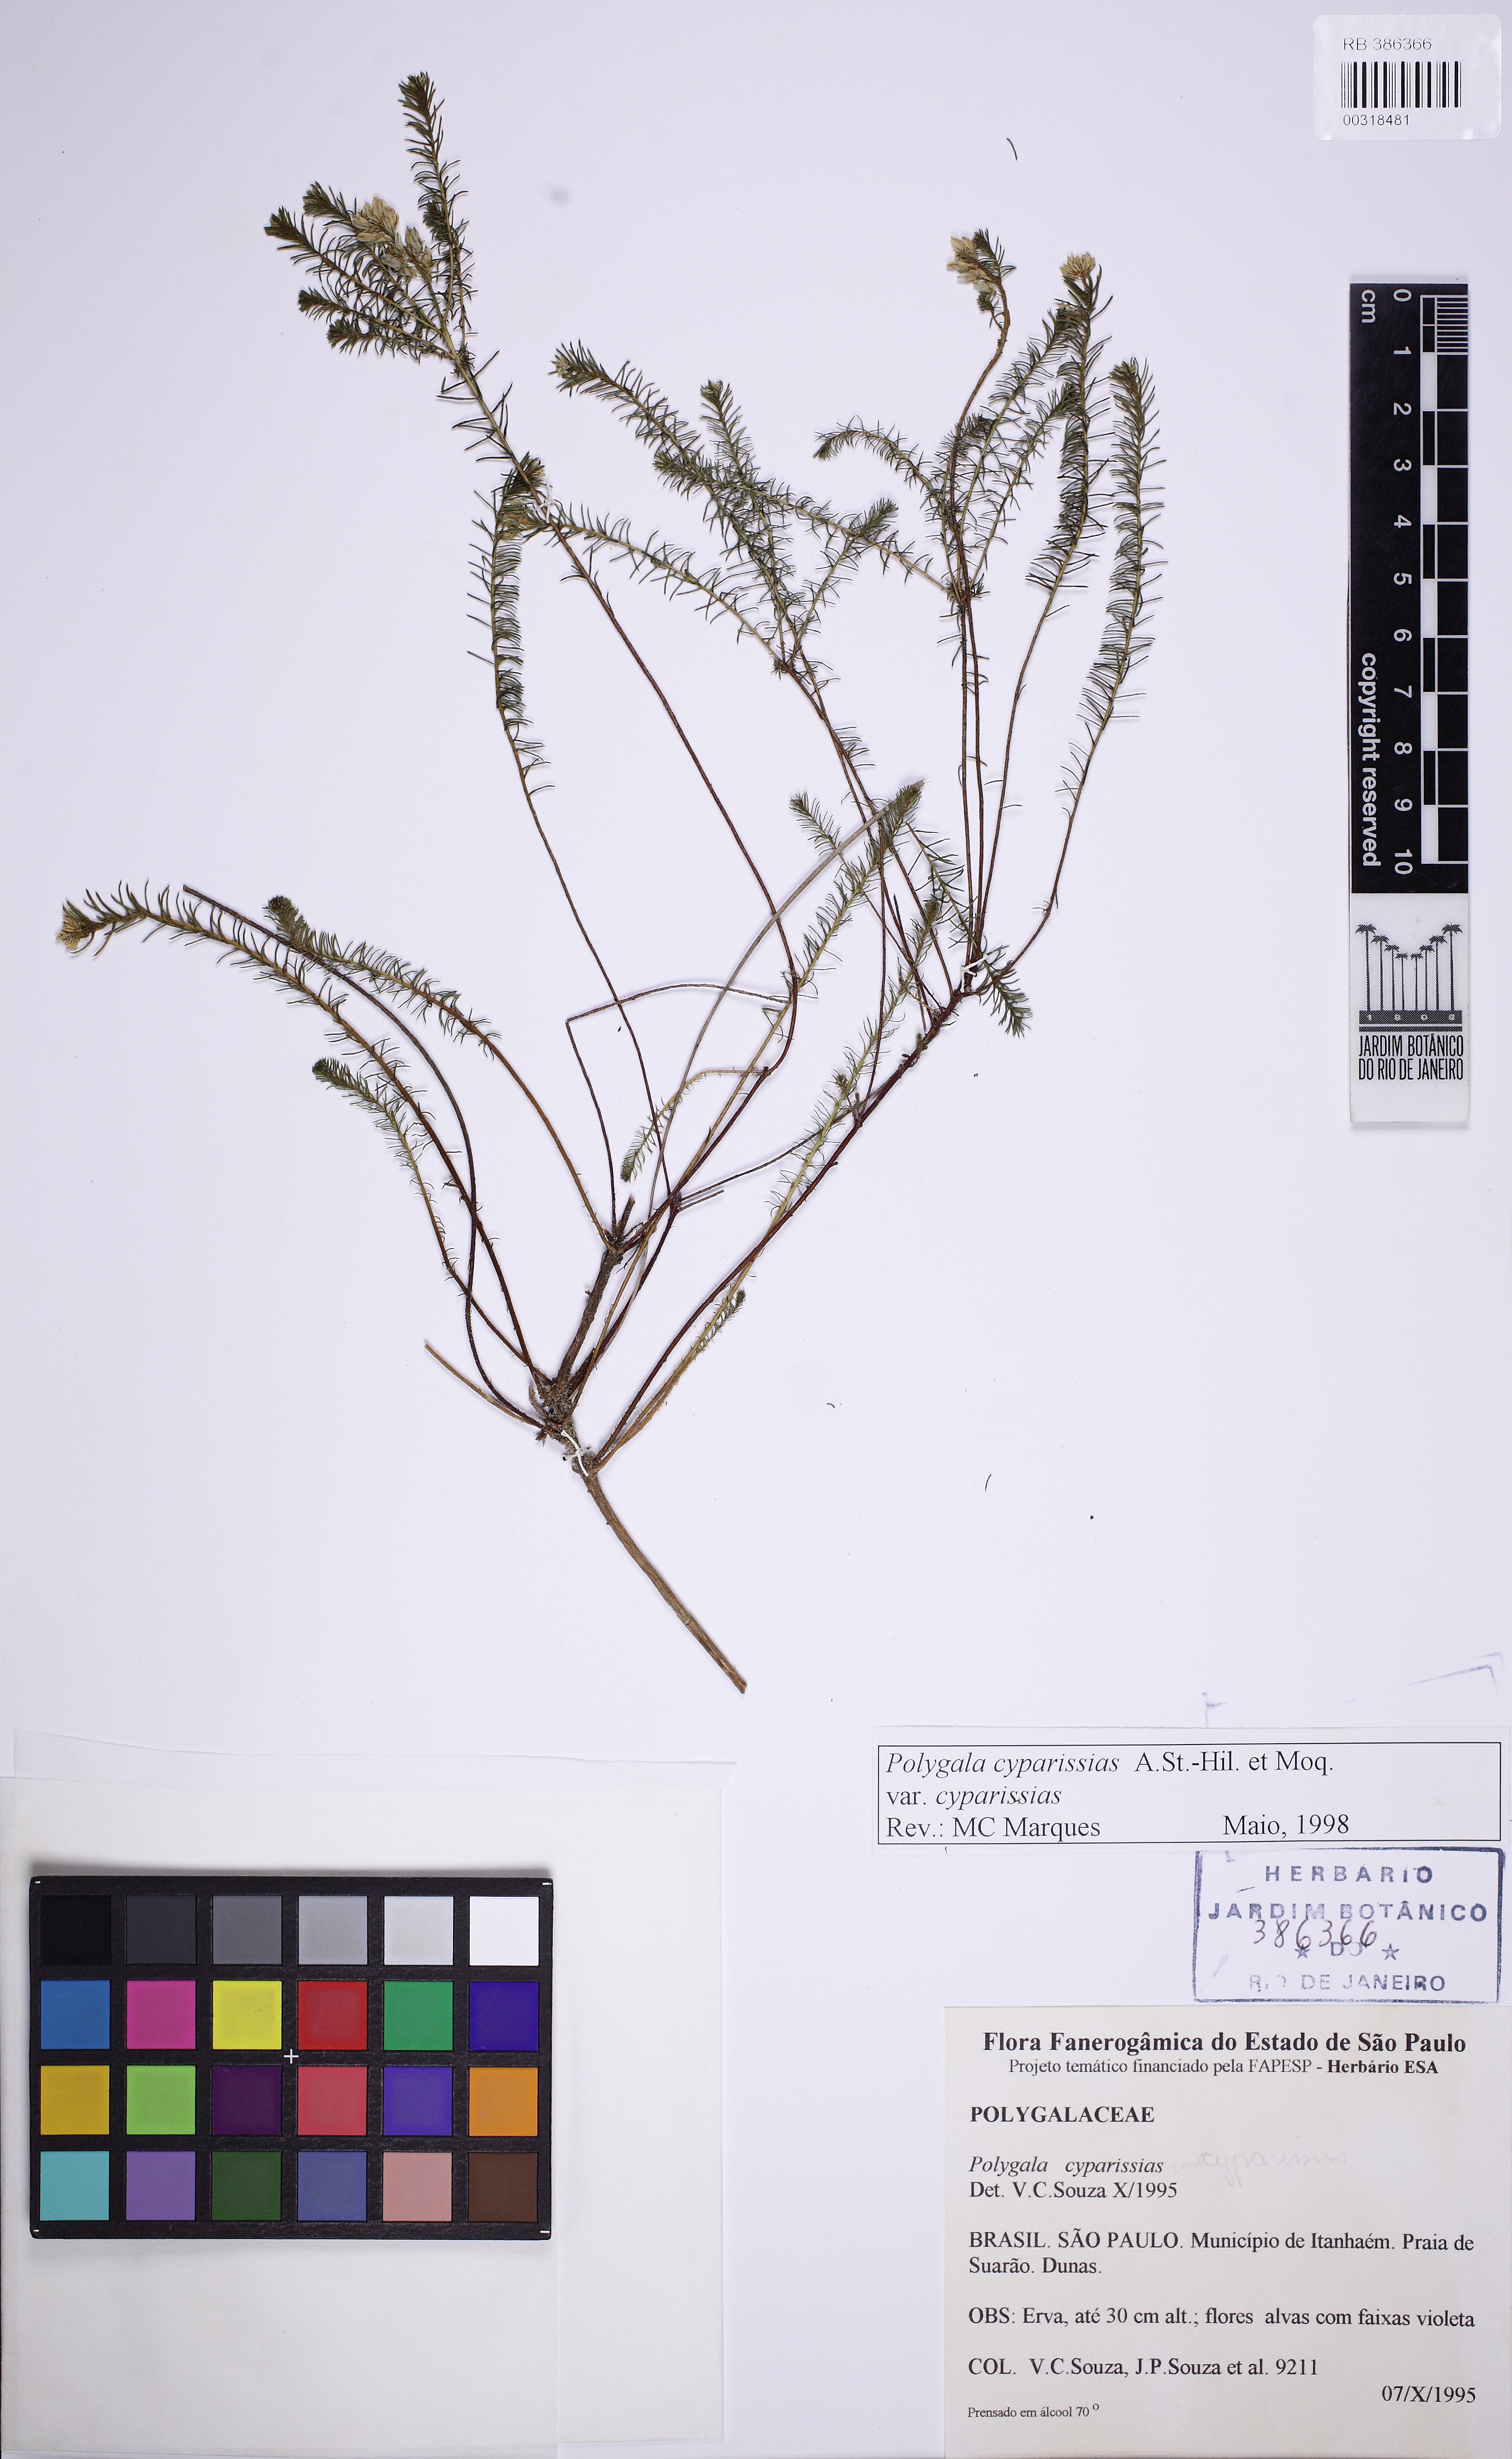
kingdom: Plantae
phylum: Tracheophyta
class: Magnoliopsida
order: Fabales
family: Polygalaceae
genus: Polygala
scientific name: Polygala cyparissias
